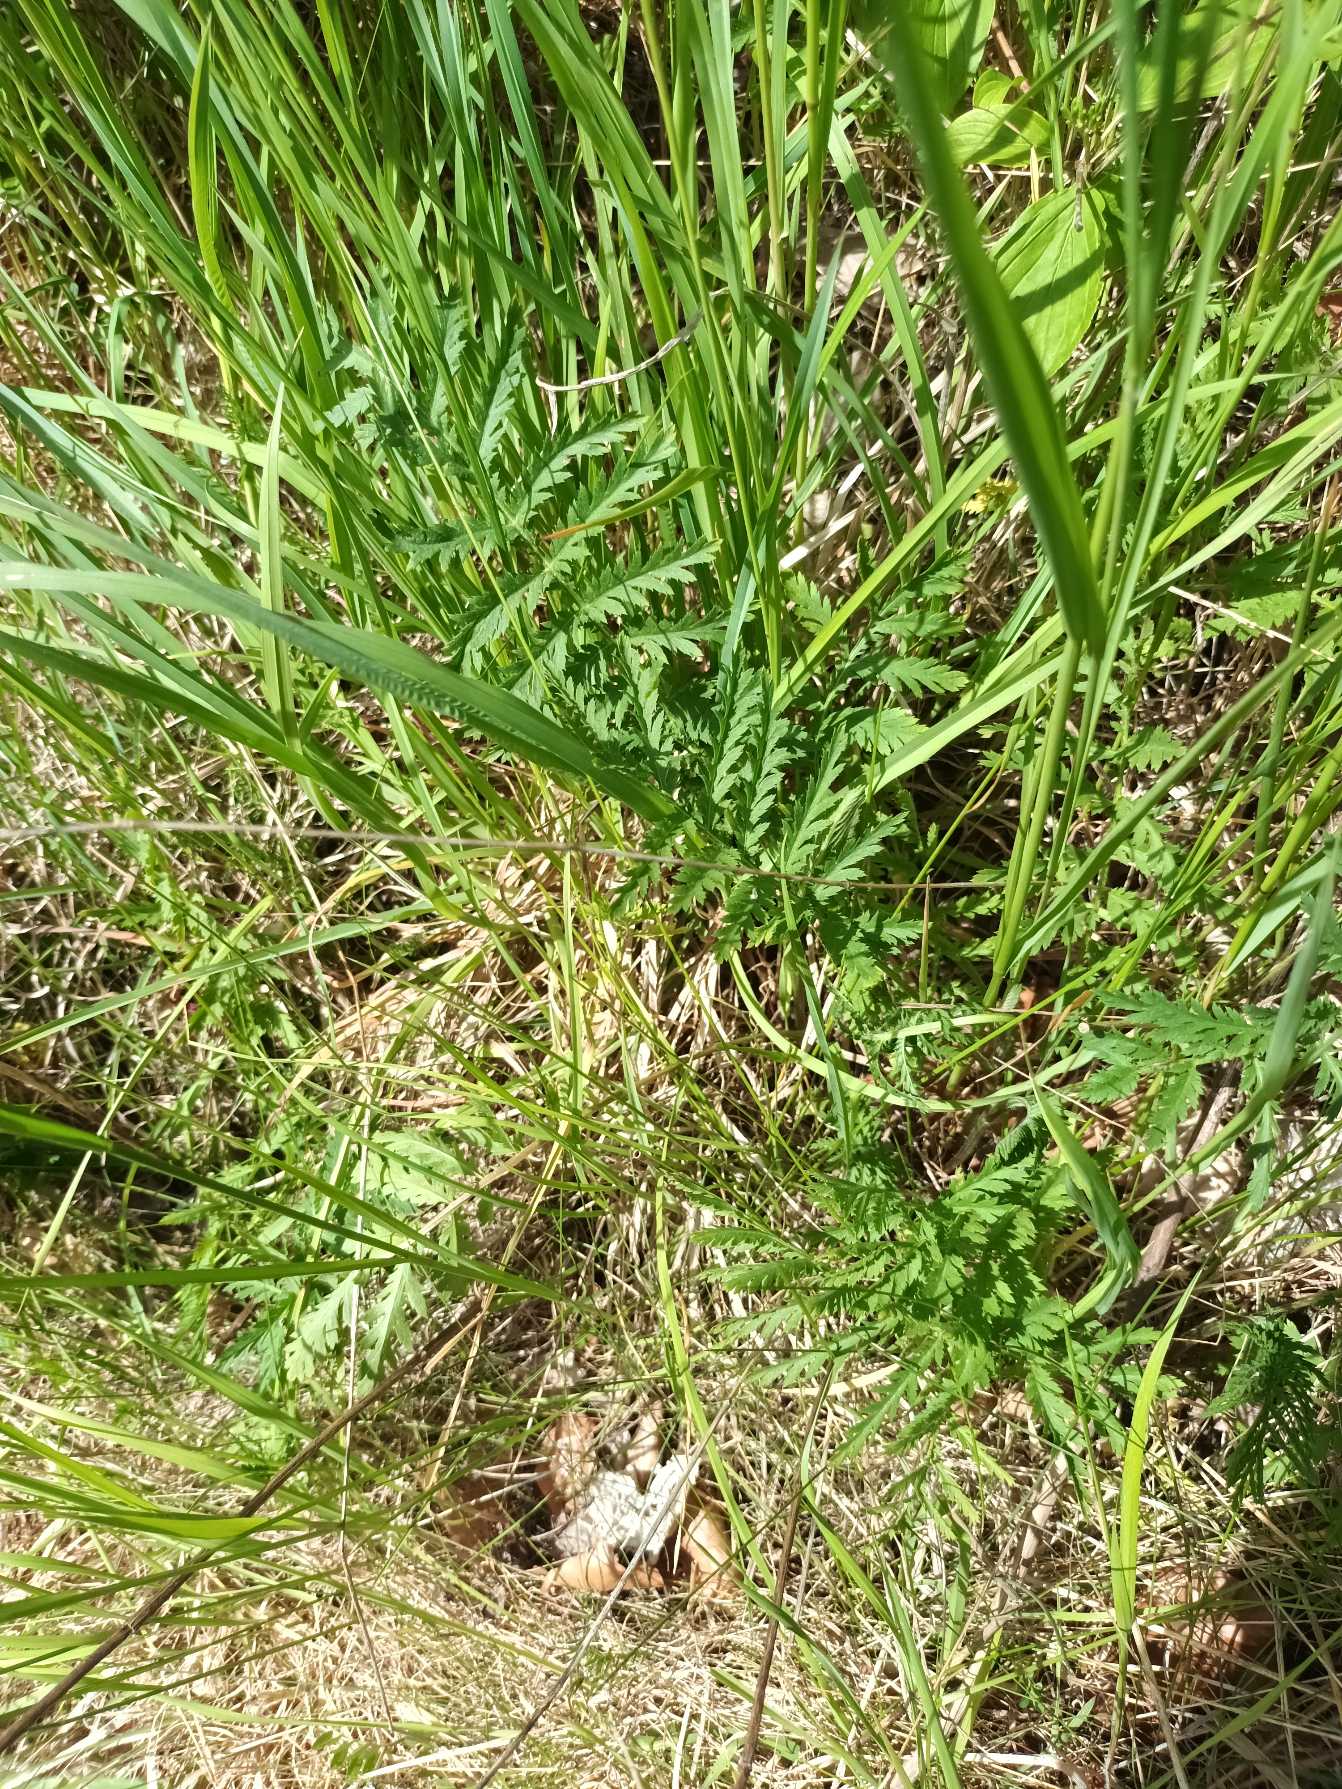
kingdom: Plantae
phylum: Tracheophyta
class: Magnoliopsida
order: Asterales
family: Asteraceae
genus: Tanacetum
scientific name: Tanacetum vulgare
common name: Rejnfan
